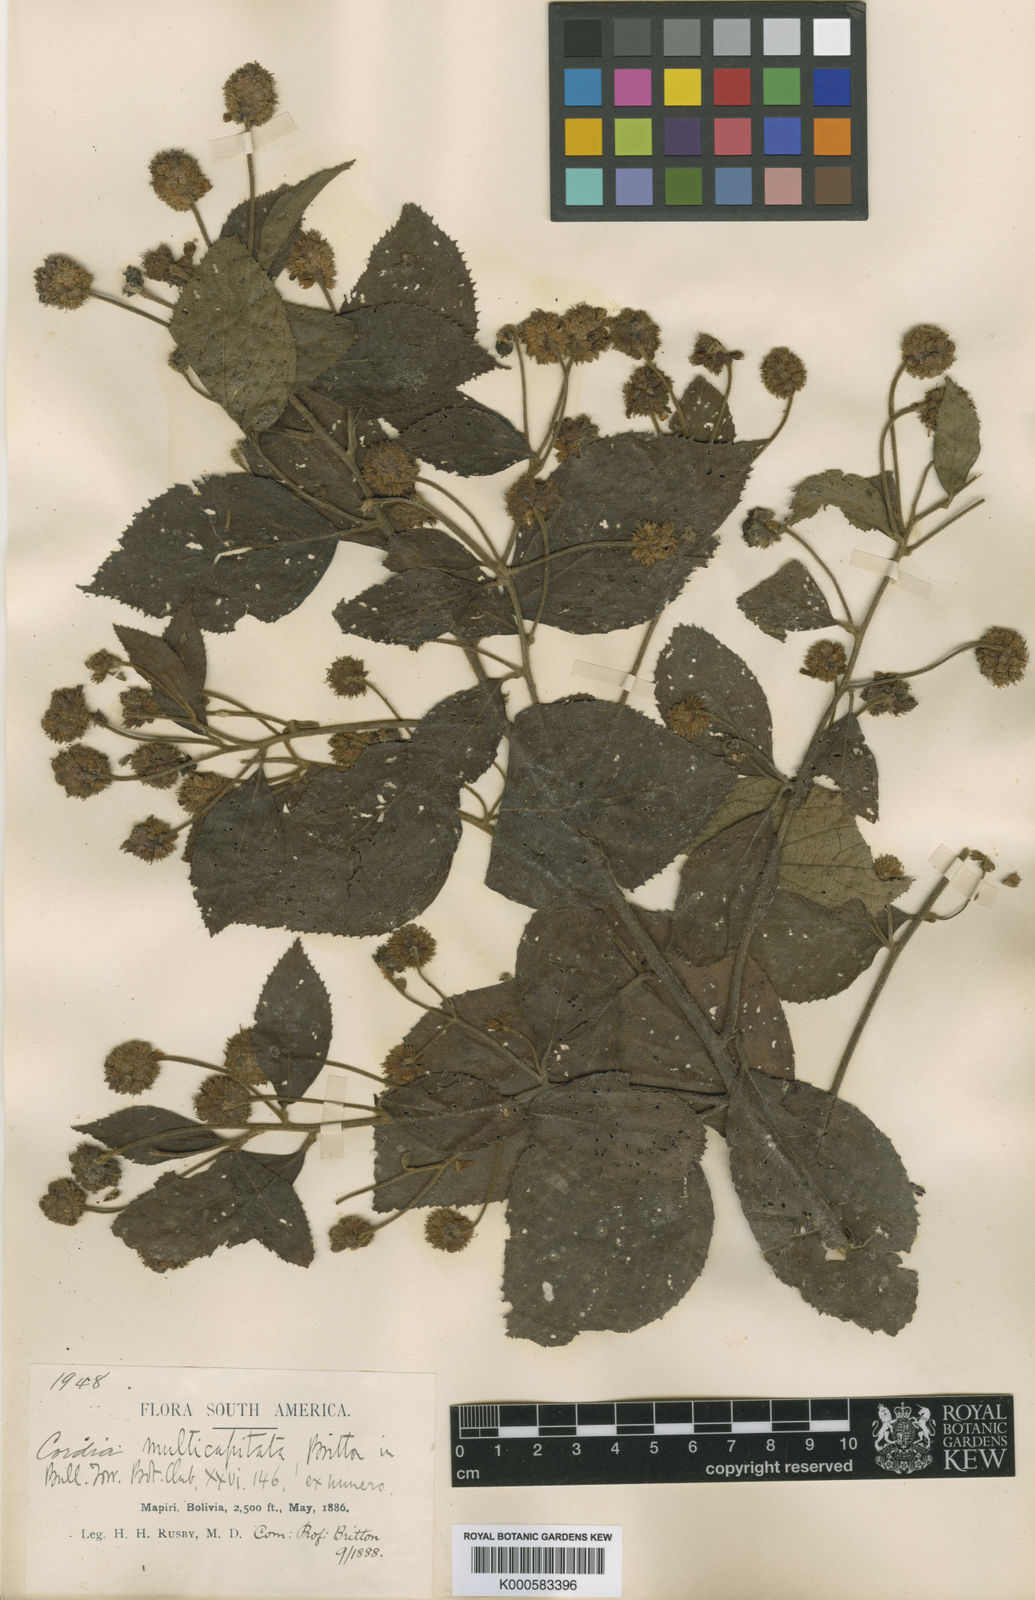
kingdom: Plantae
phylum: Tracheophyta
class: Magnoliopsida
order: Boraginales
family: Cordiaceae
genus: Varronia
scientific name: Varronia multicapitata
